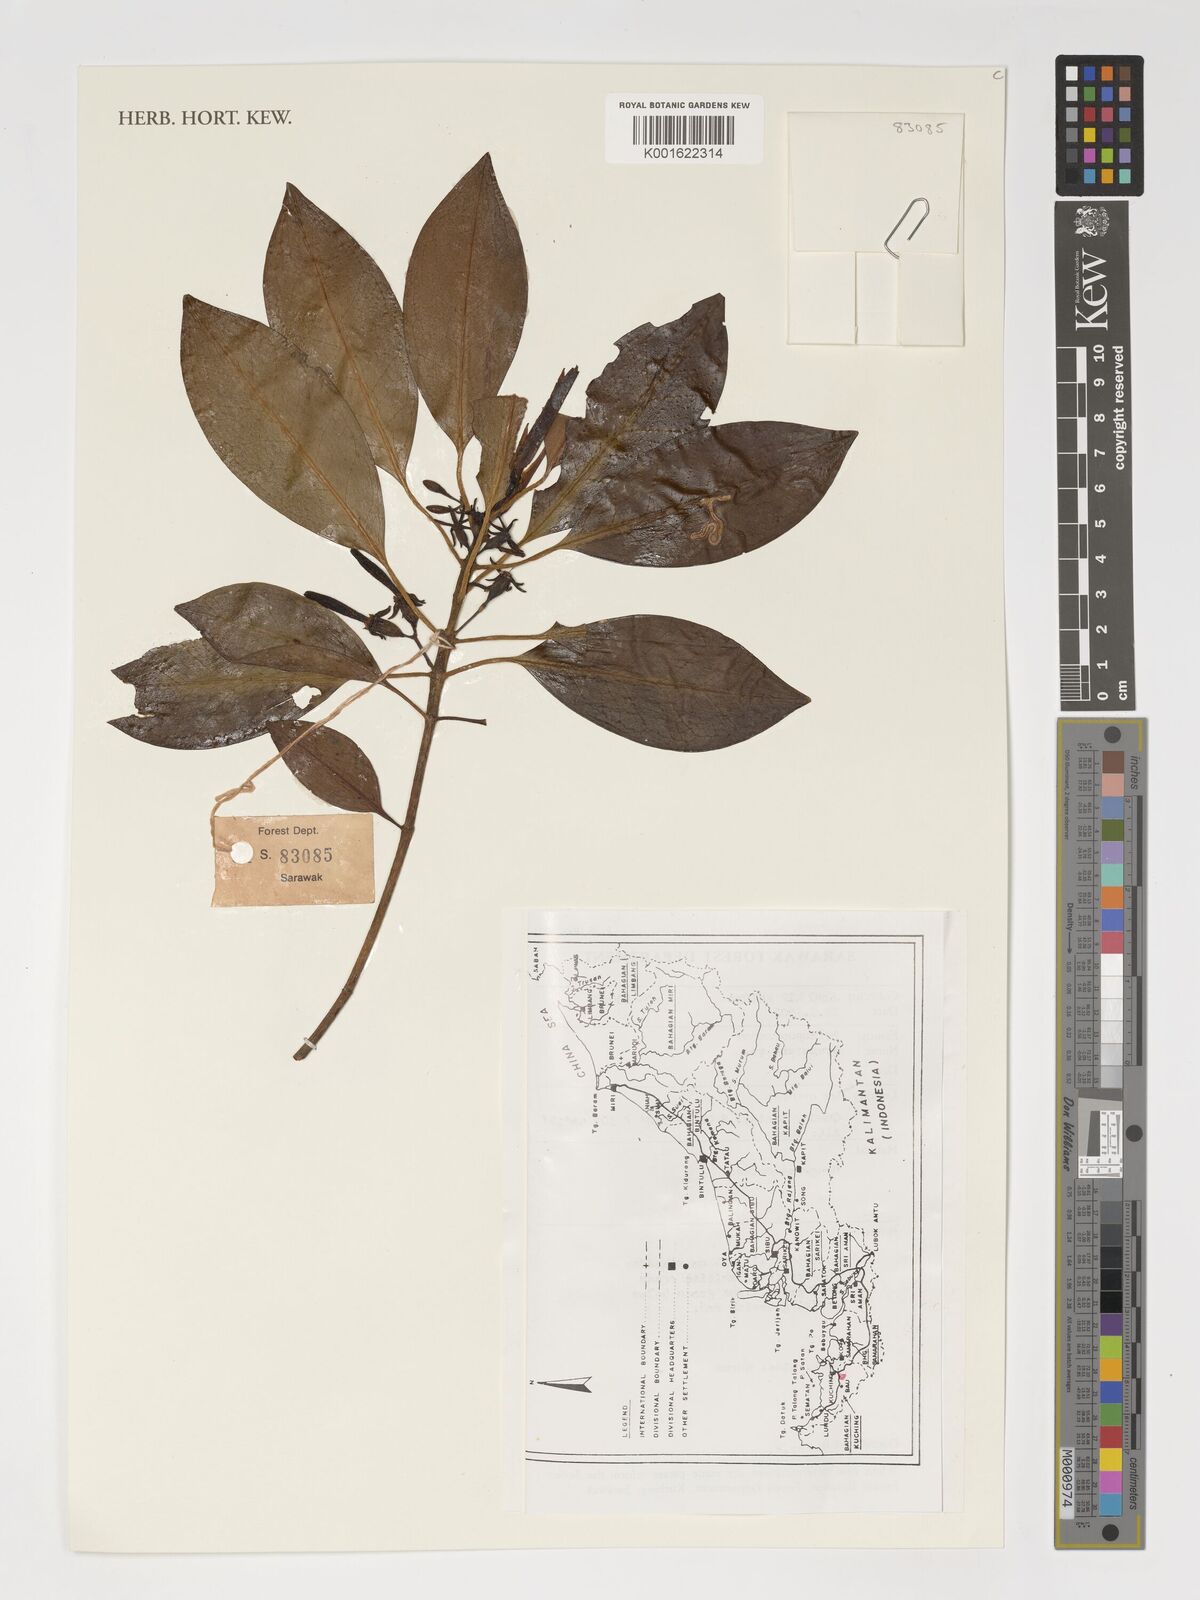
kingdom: Plantae
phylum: Tracheophyta
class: Magnoliopsida
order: Malpighiales
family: Rhizophoraceae
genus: Bruguiera
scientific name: Bruguiera
